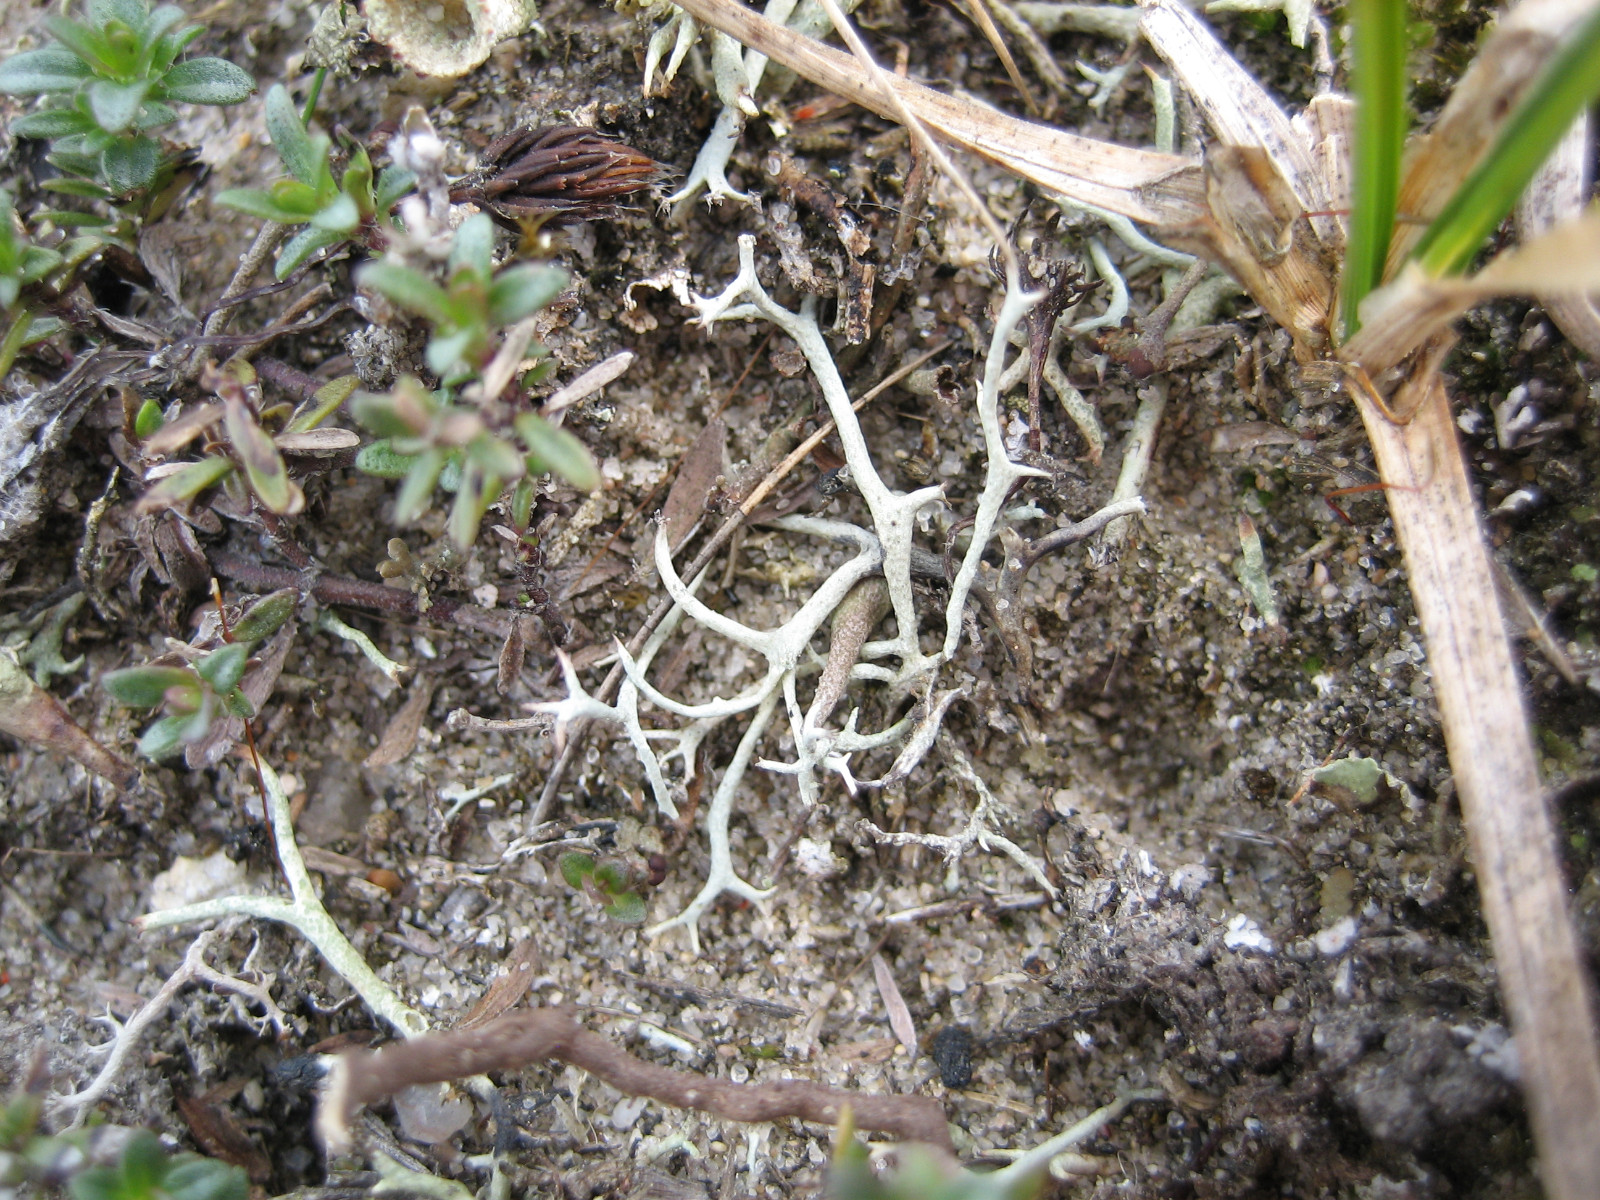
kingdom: Fungi
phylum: Ascomycota
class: Lecanoromycetes
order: Lecanorales
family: Cladoniaceae
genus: Cladonia
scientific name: Cladonia zopfii
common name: klit-bægerlav
